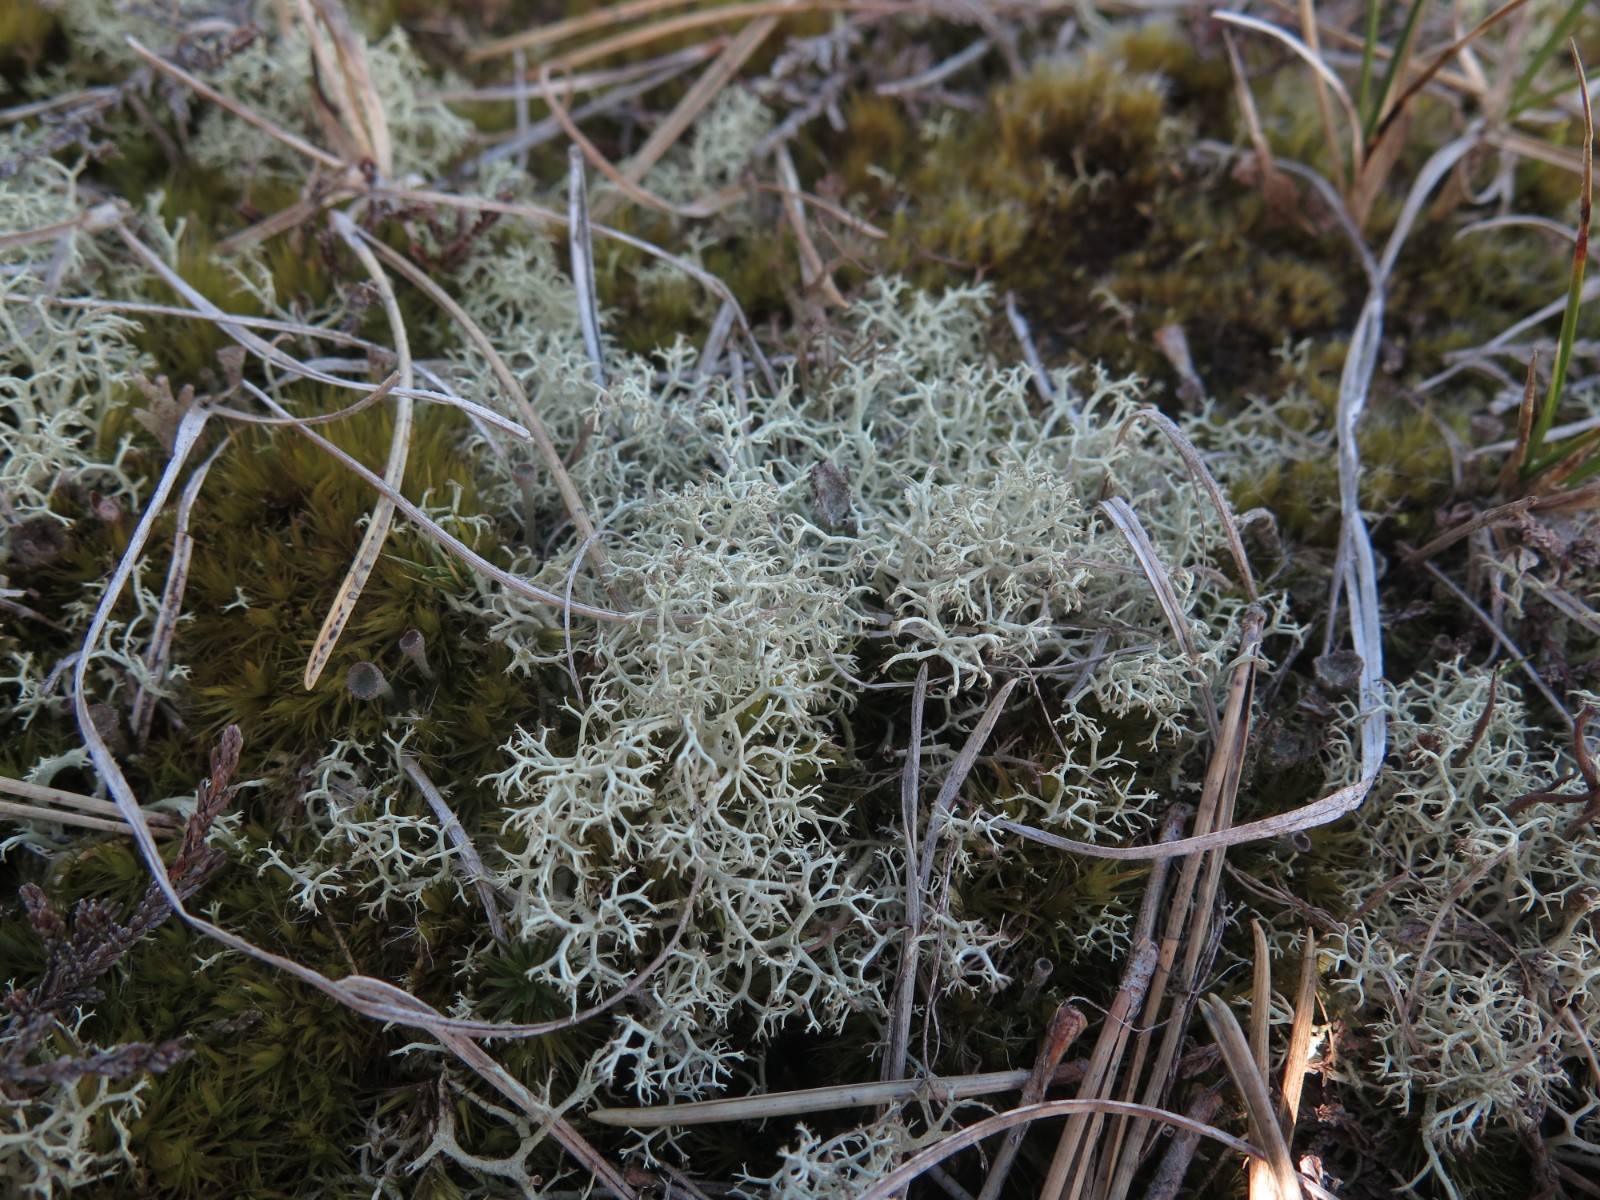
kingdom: Fungi
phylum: Ascomycota
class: Lecanoromycetes
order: Lecanorales
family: Cladoniaceae
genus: Cladonia
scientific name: Cladonia portentosa
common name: hede-rensdyrlav
